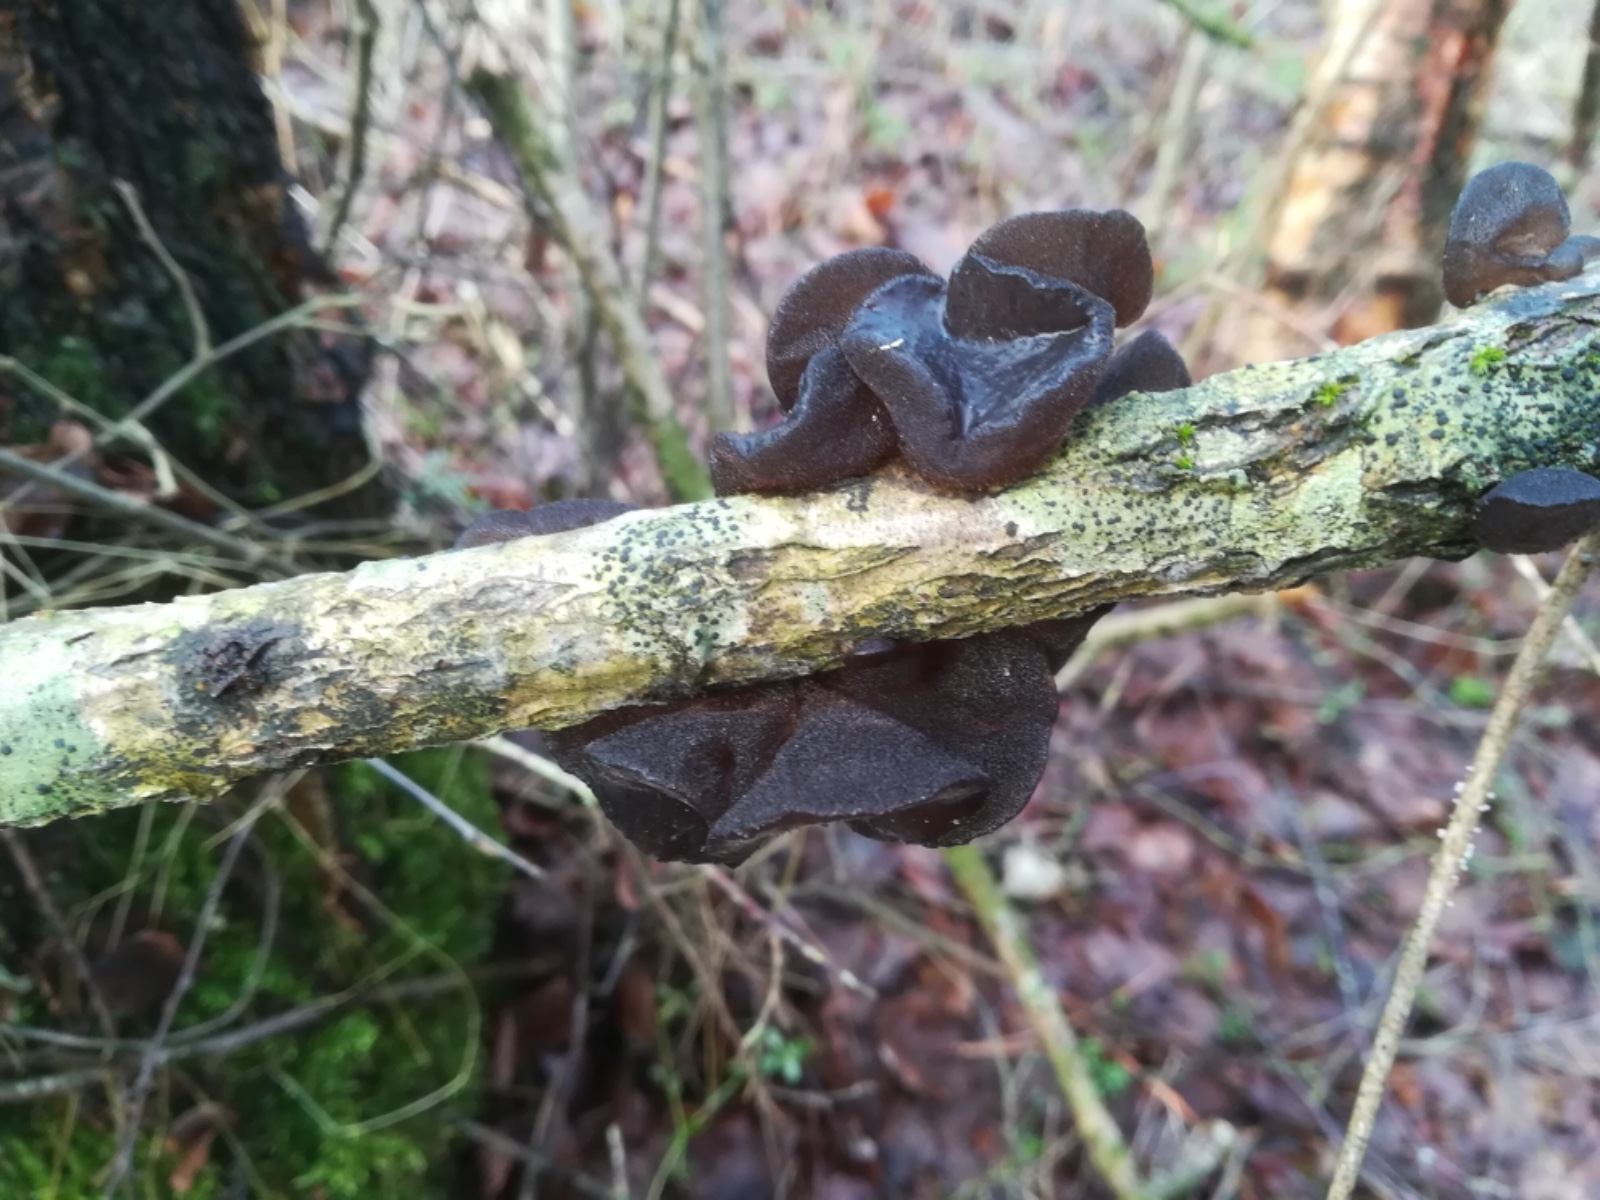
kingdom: Fungi
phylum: Basidiomycota
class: Agaricomycetes
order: Auriculariales
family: Auriculariaceae
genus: Exidia
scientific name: Exidia glandulosa
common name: ege-bævretop
